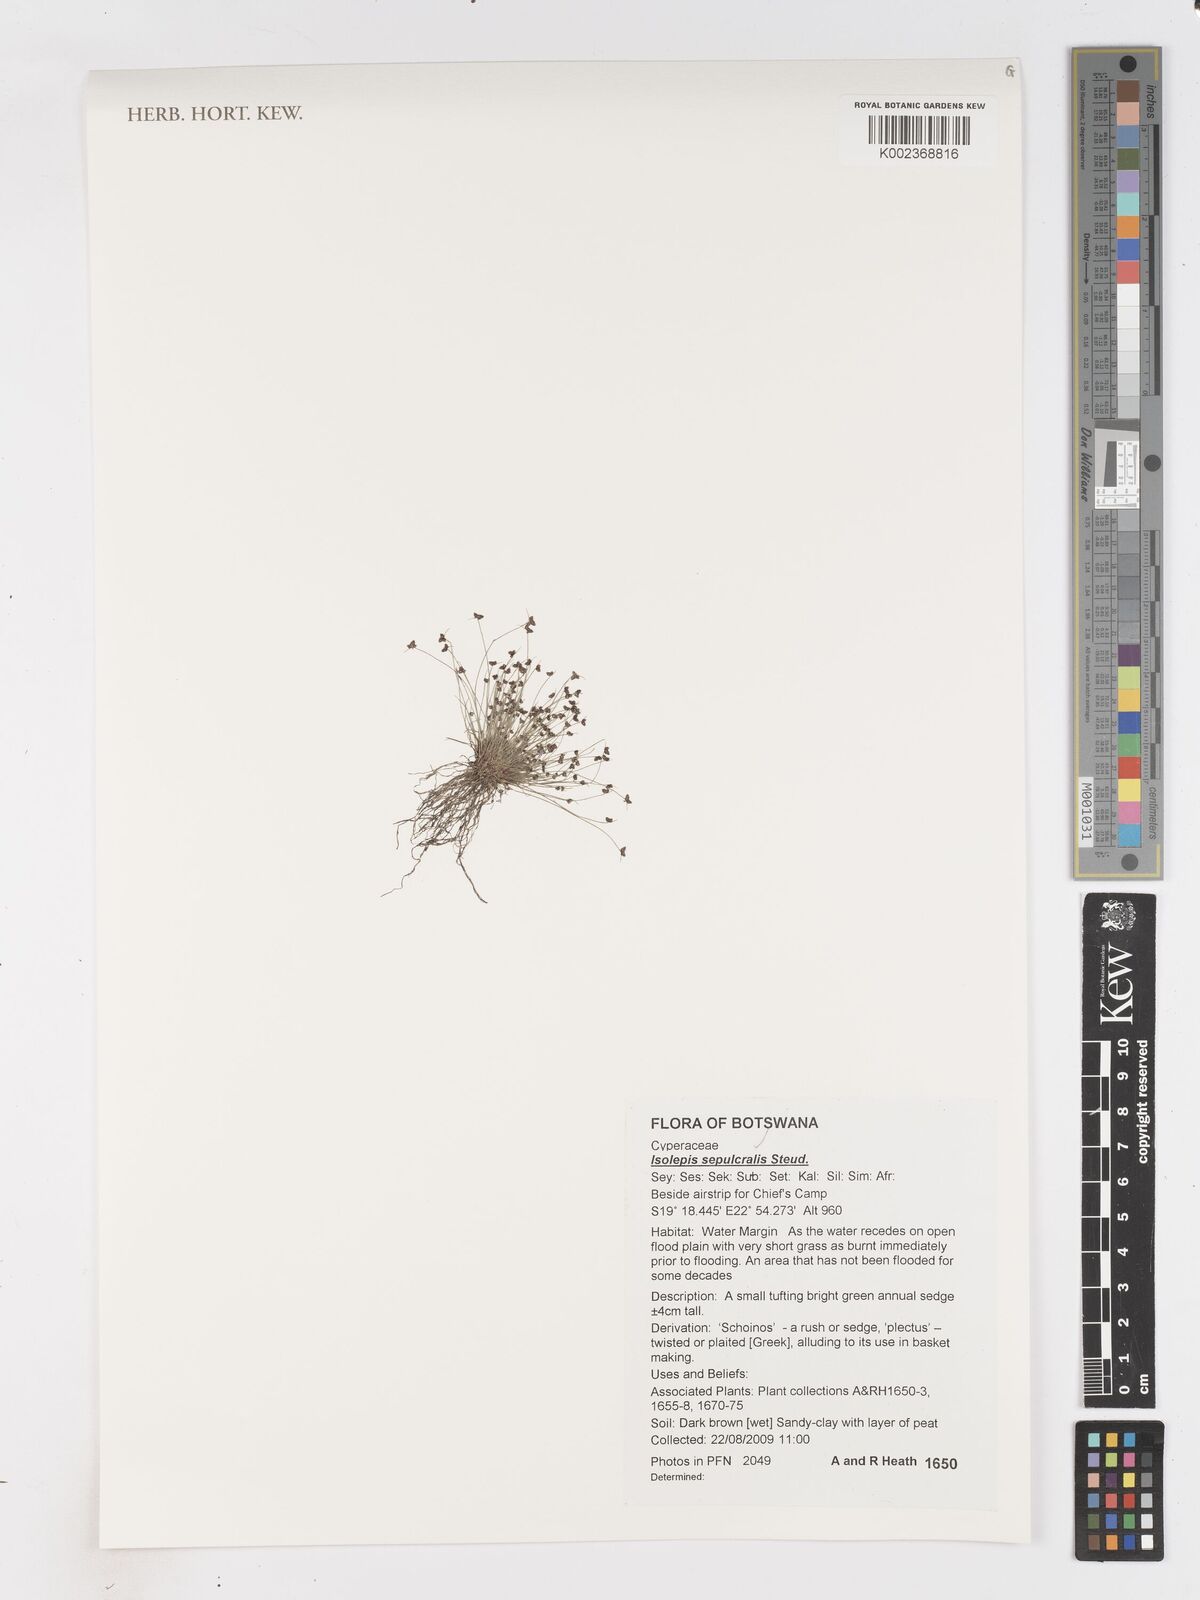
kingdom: Plantae
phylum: Tracheophyta
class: Liliopsida
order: Poales
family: Cyperaceae
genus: Isolepis
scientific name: Isolepis sepulcralis
